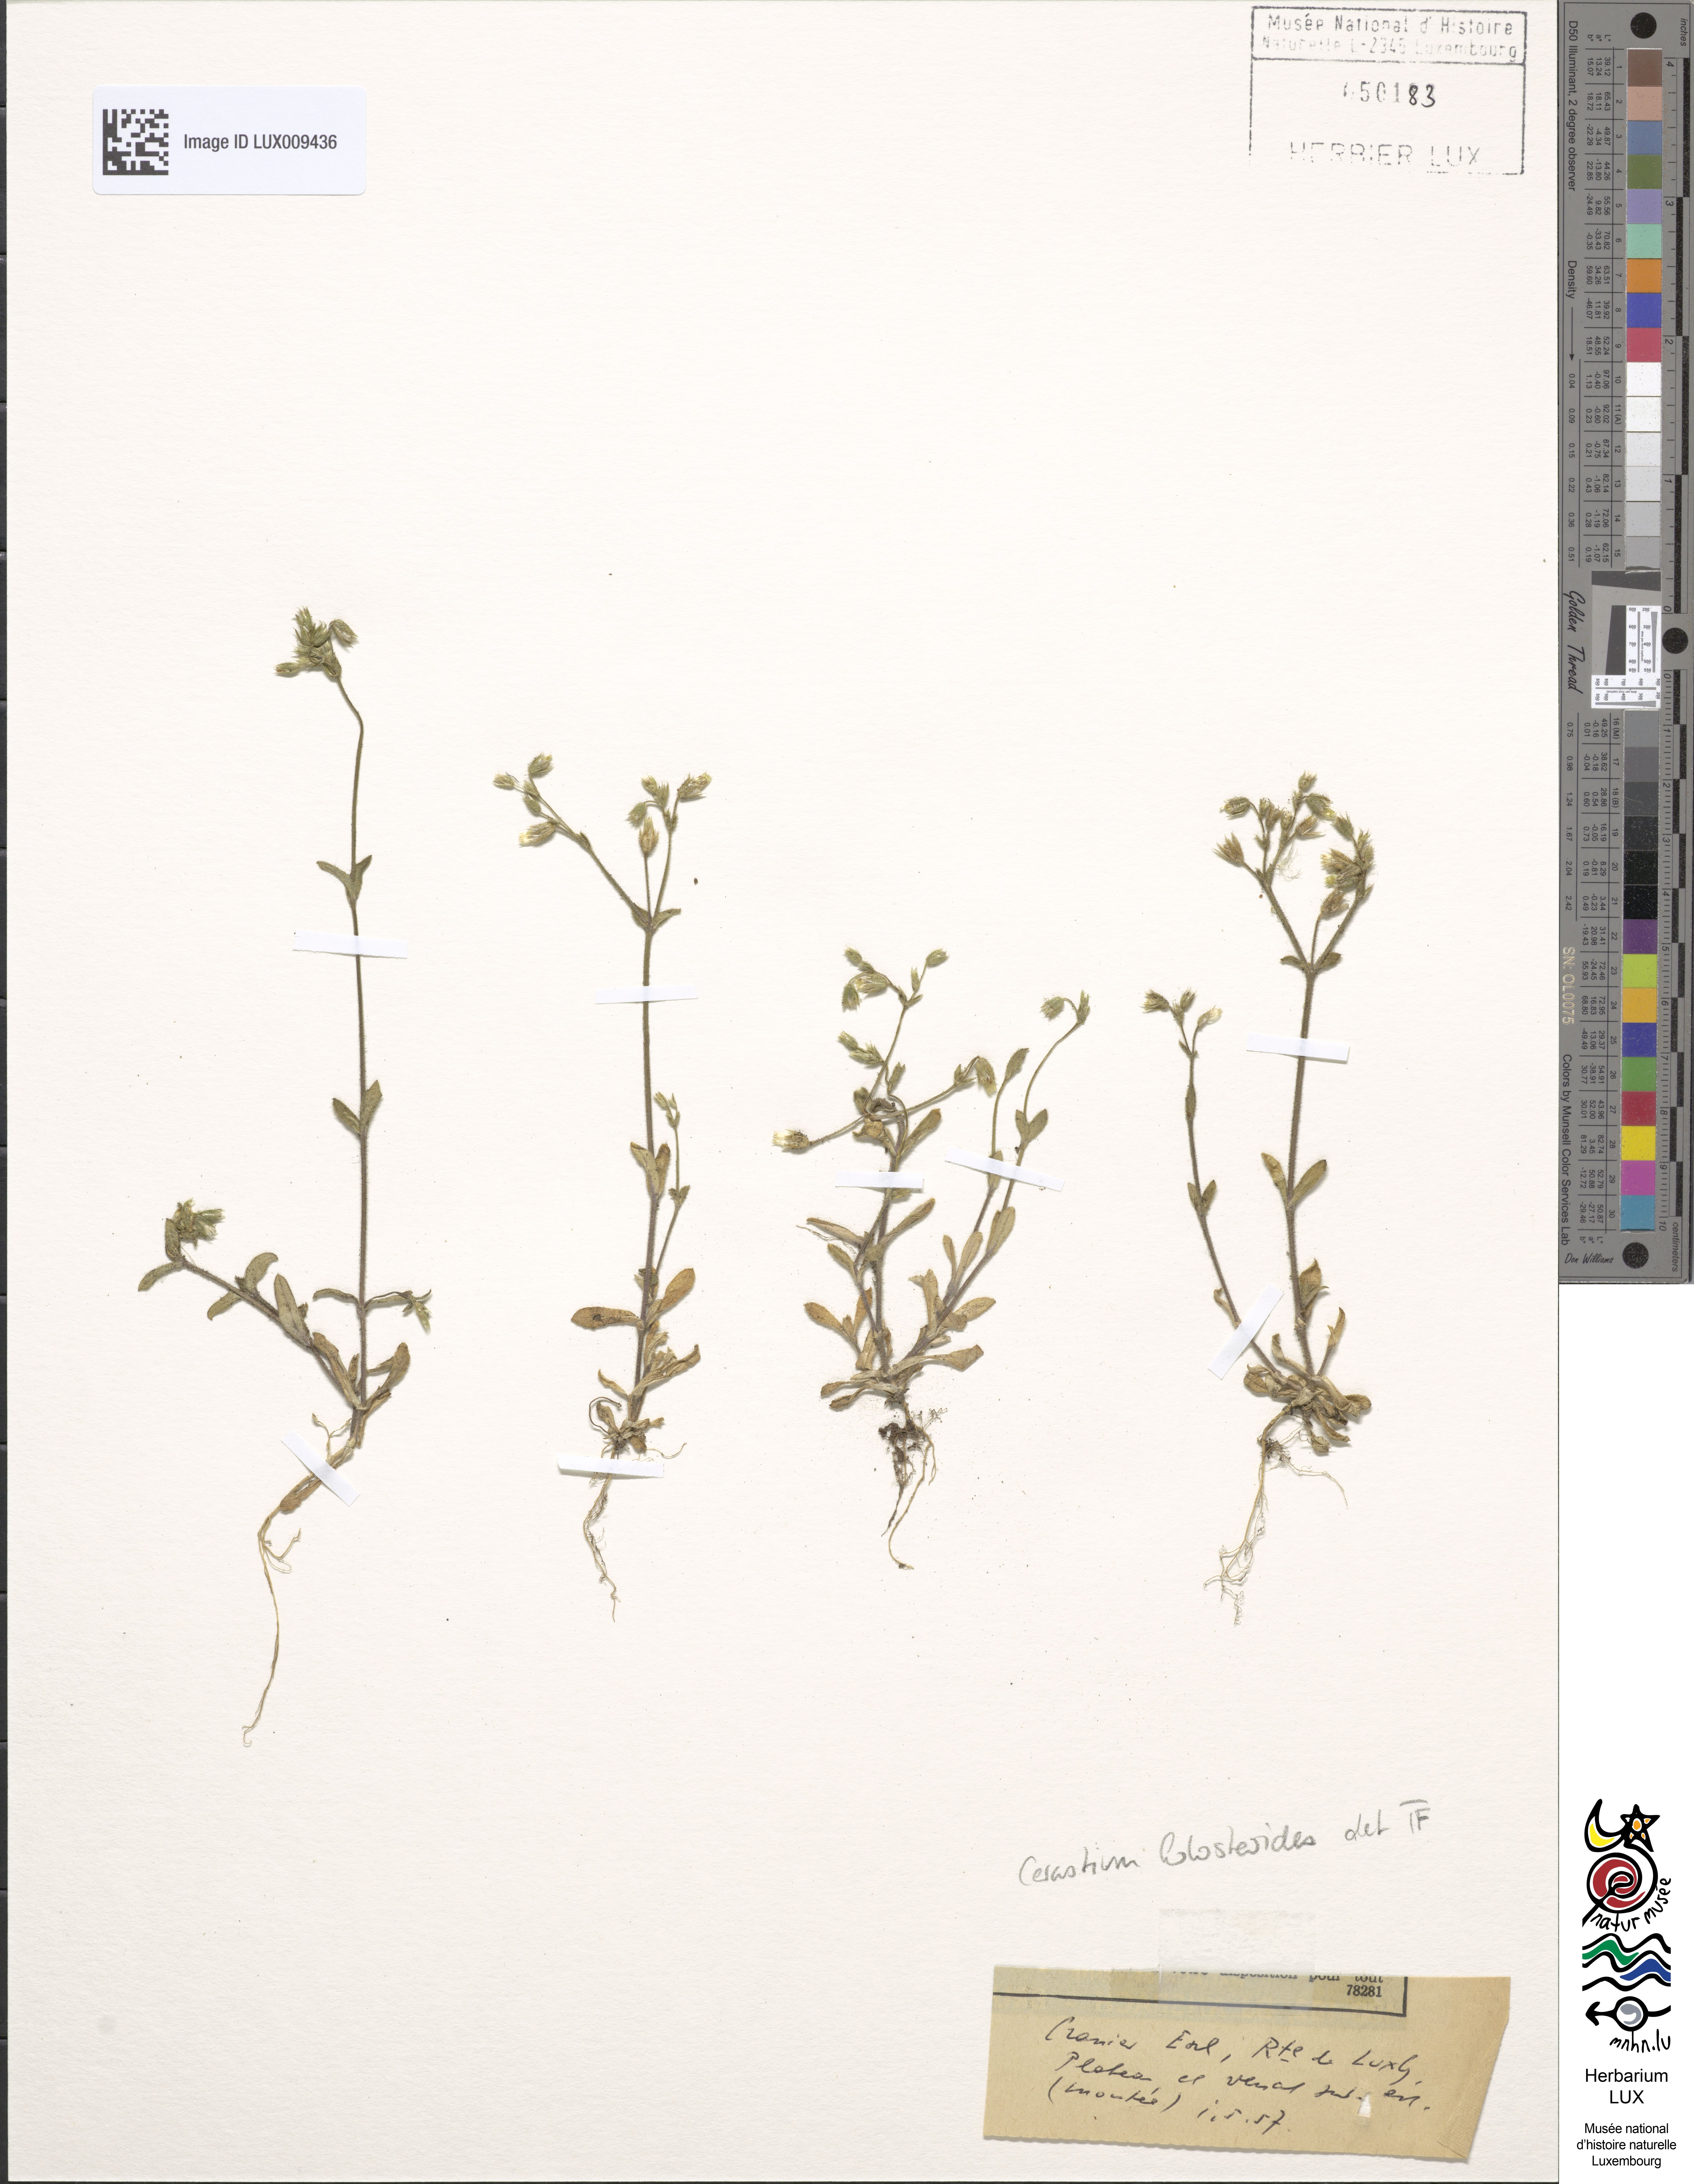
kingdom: Plantae
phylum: Tracheophyta
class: Magnoliopsida
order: Caryophyllales
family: Caryophyllaceae
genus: Cerastium
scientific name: Cerastium holosteoides
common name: Big chickweed
